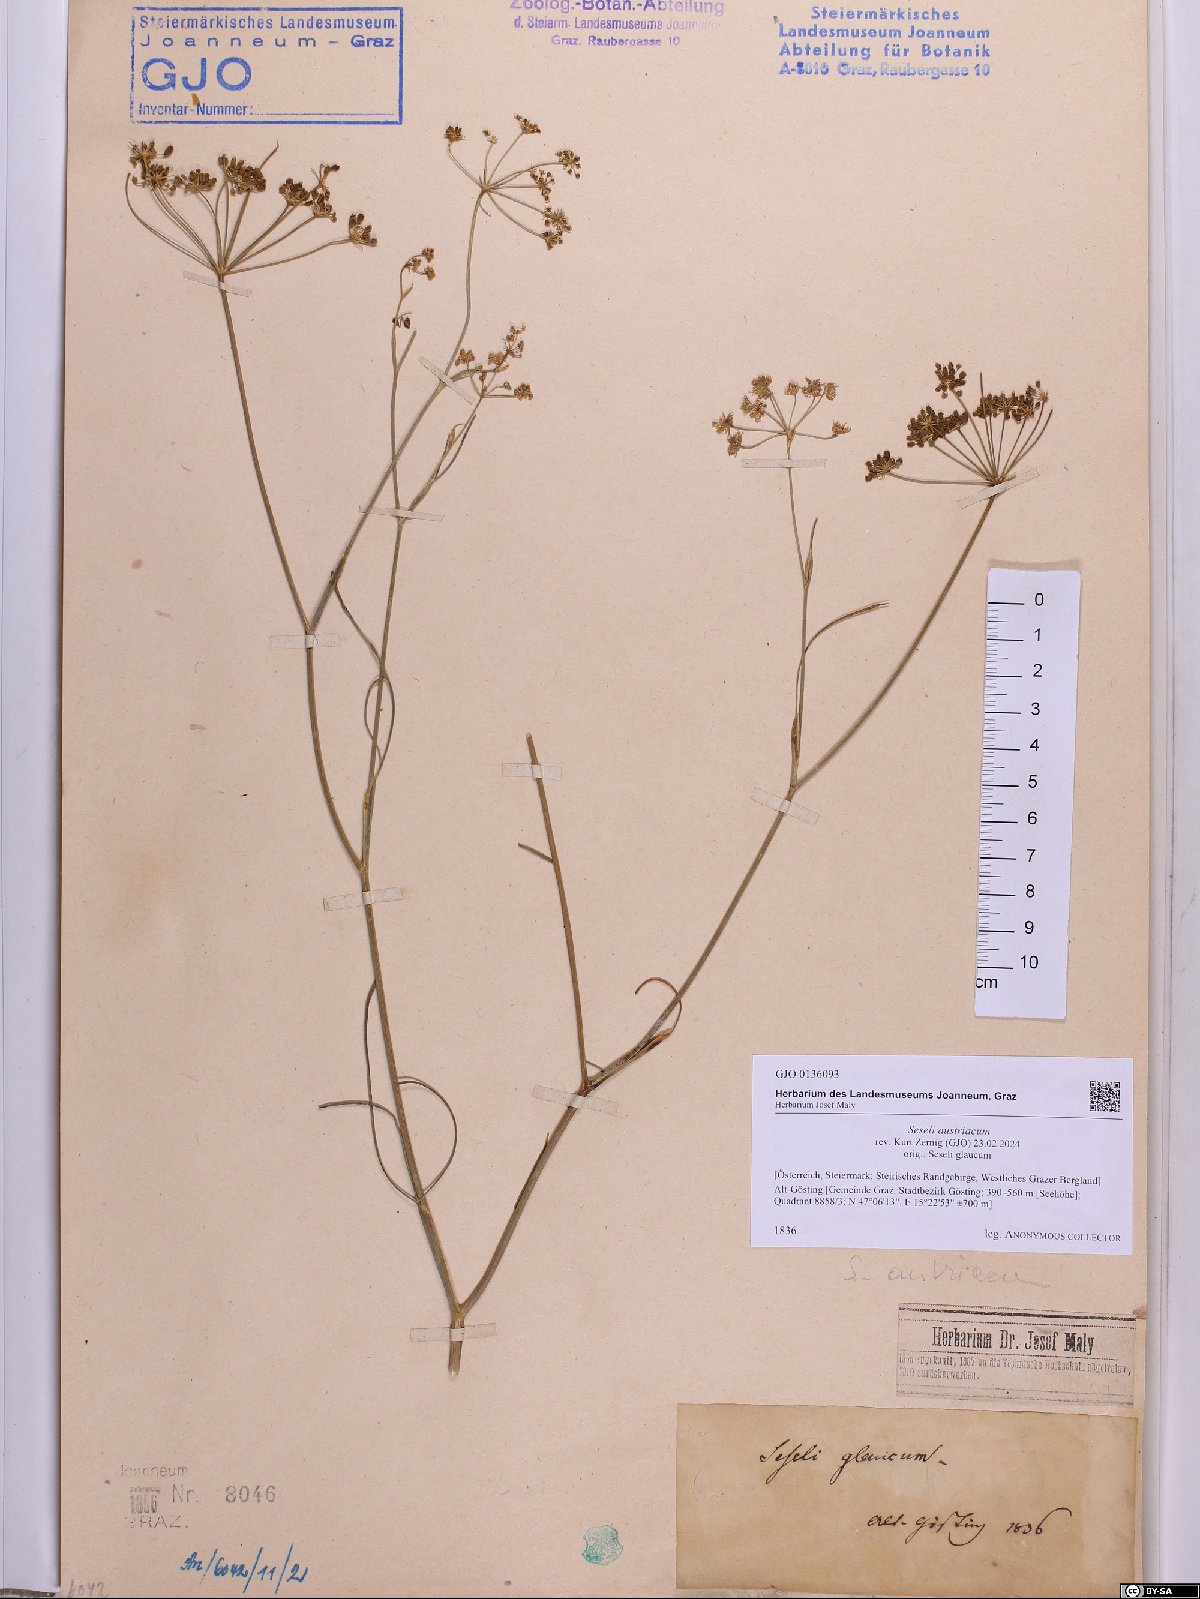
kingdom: Plantae
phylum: Tracheophyta
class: Magnoliopsida
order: Apiales
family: Apiaceae
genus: Seseli
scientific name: Seseli austriacum
